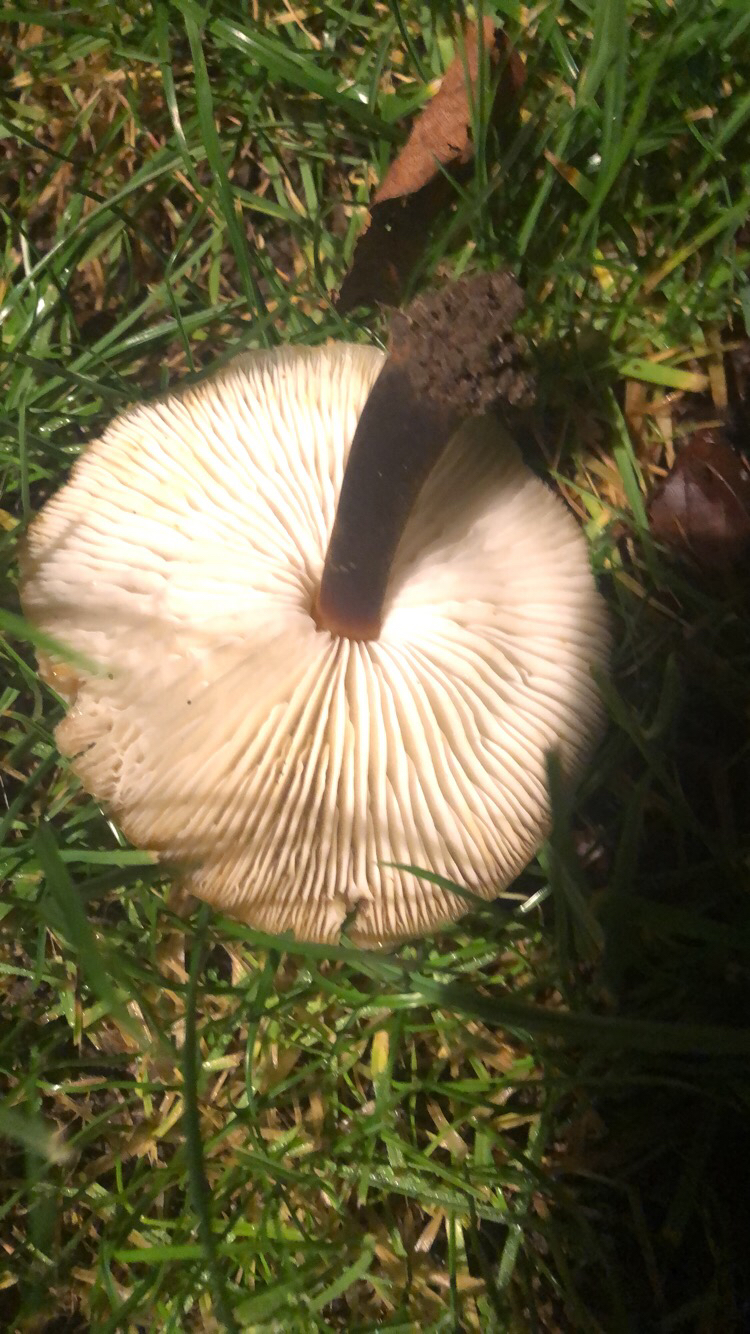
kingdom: Fungi
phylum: Basidiomycota
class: Agaricomycetes
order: Agaricales
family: Physalacriaceae
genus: Flammulina
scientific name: Flammulina
